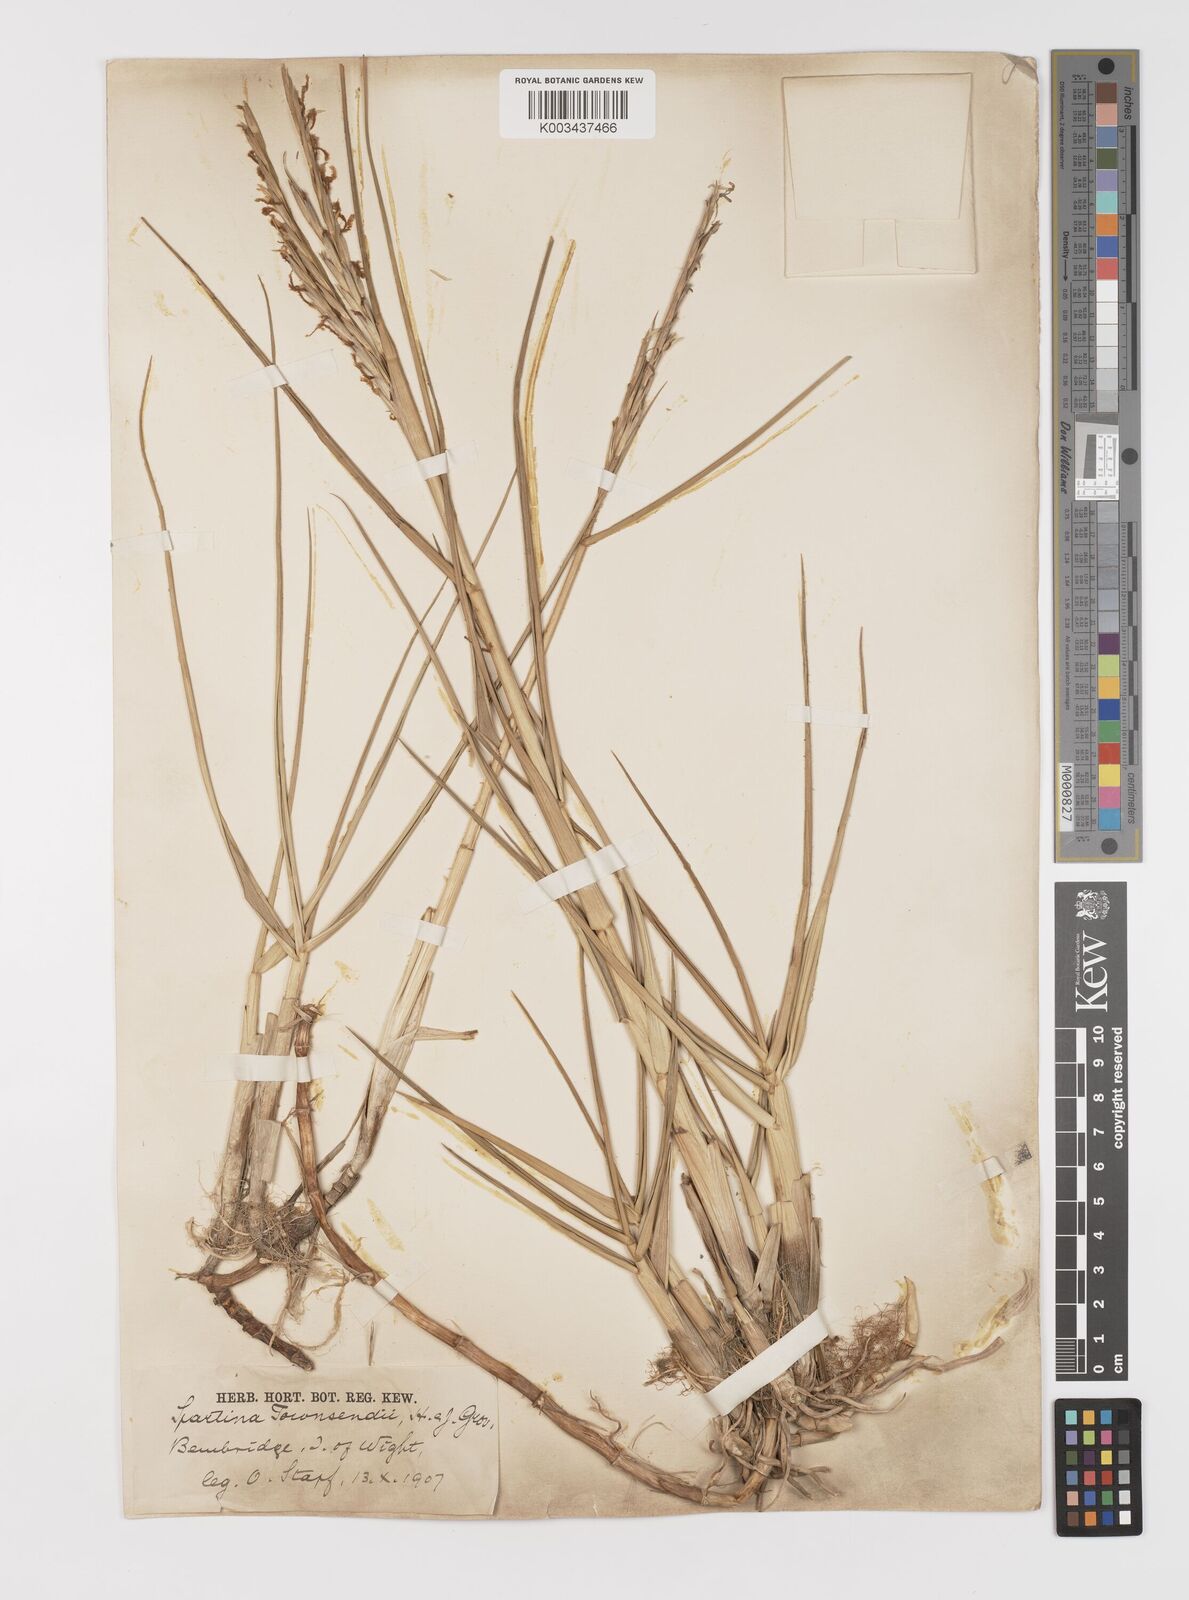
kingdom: Plantae
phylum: Tracheophyta
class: Liliopsida
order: Poales
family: Poaceae
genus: Sporobolus
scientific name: Sporobolus anglicus
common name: English cordgrass
